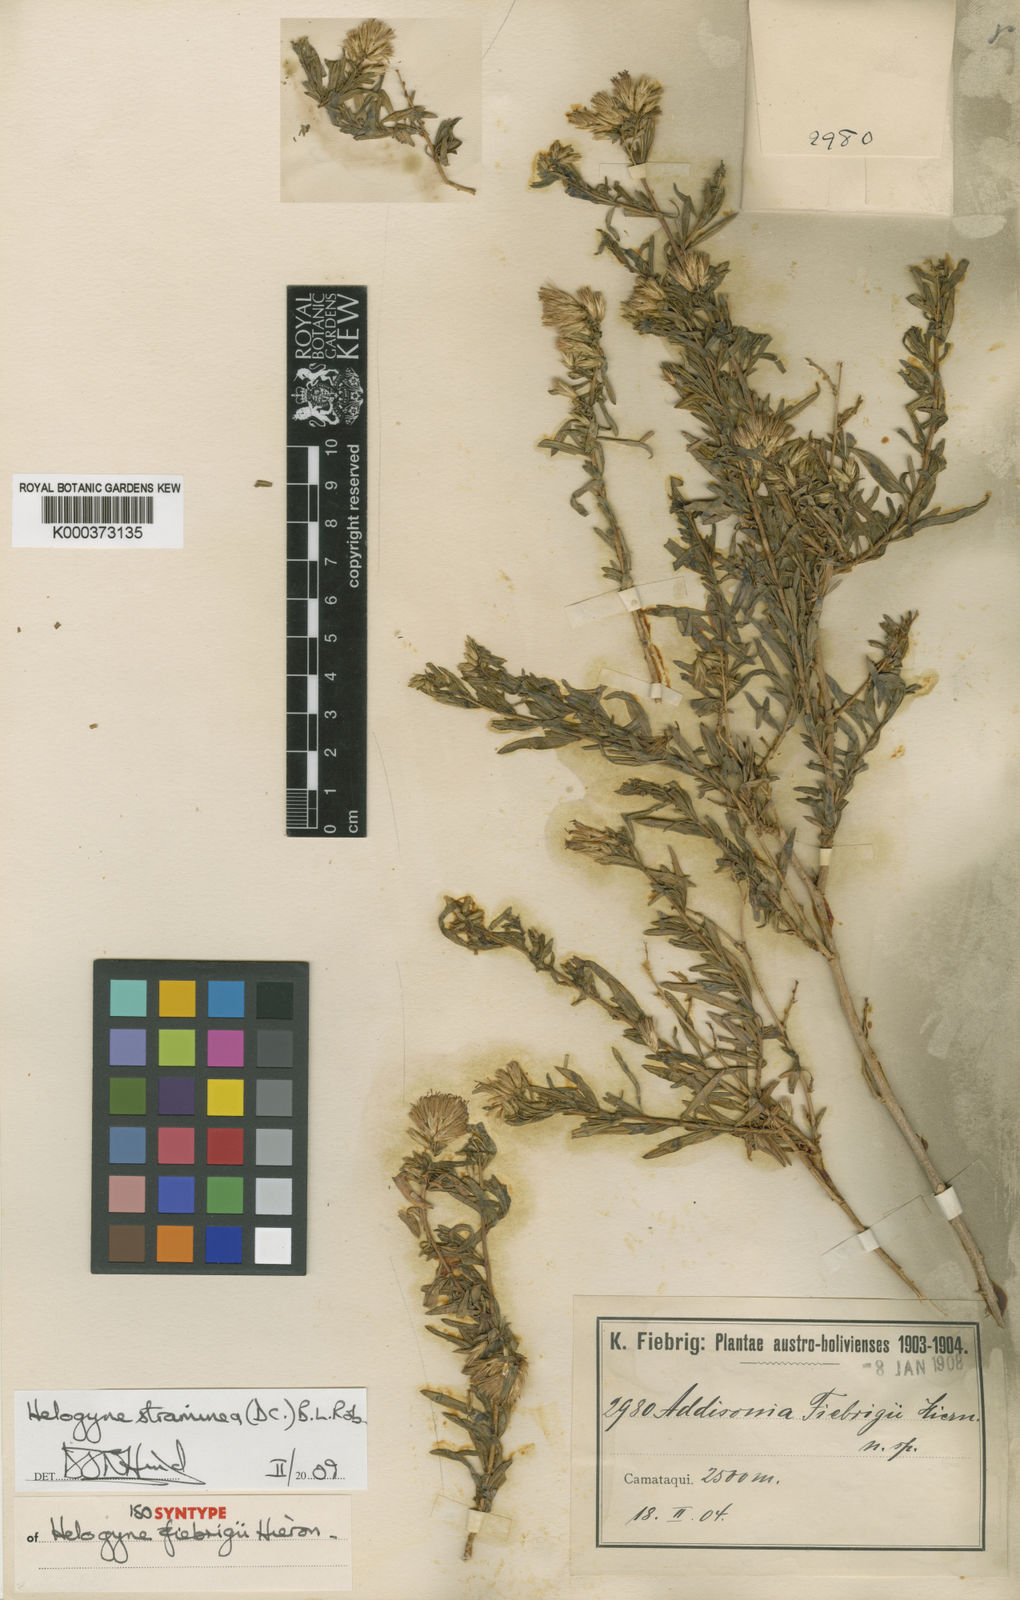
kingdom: Plantae
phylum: Tracheophyta
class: Magnoliopsida
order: Asterales
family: Asteraceae
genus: Helogyne
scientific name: Helogyne straminea
